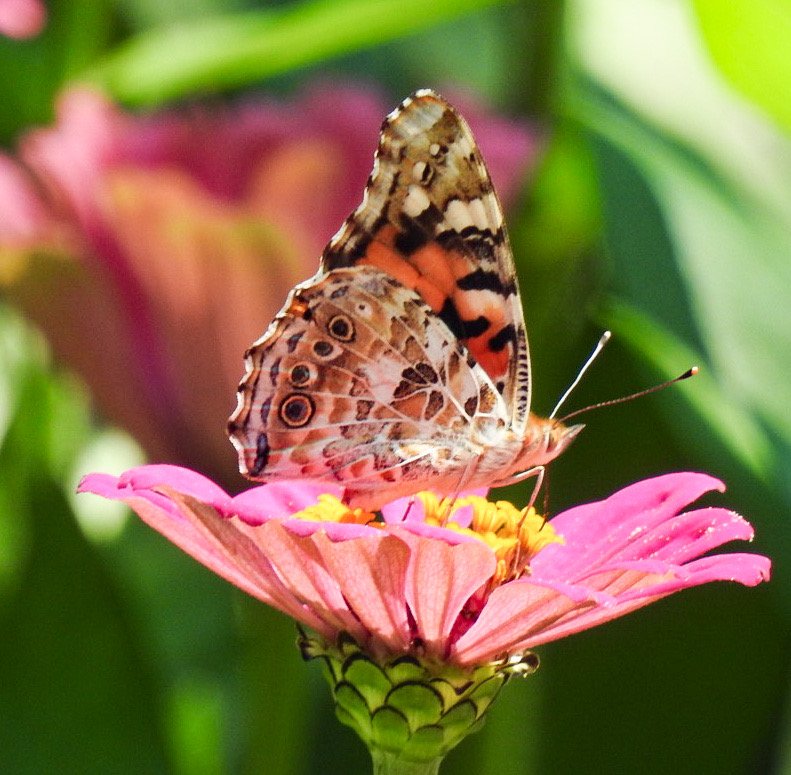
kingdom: Animalia
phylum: Arthropoda
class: Insecta
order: Lepidoptera
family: Nymphalidae
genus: Vanessa
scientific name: Vanessa cardui
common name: Painted Lady
